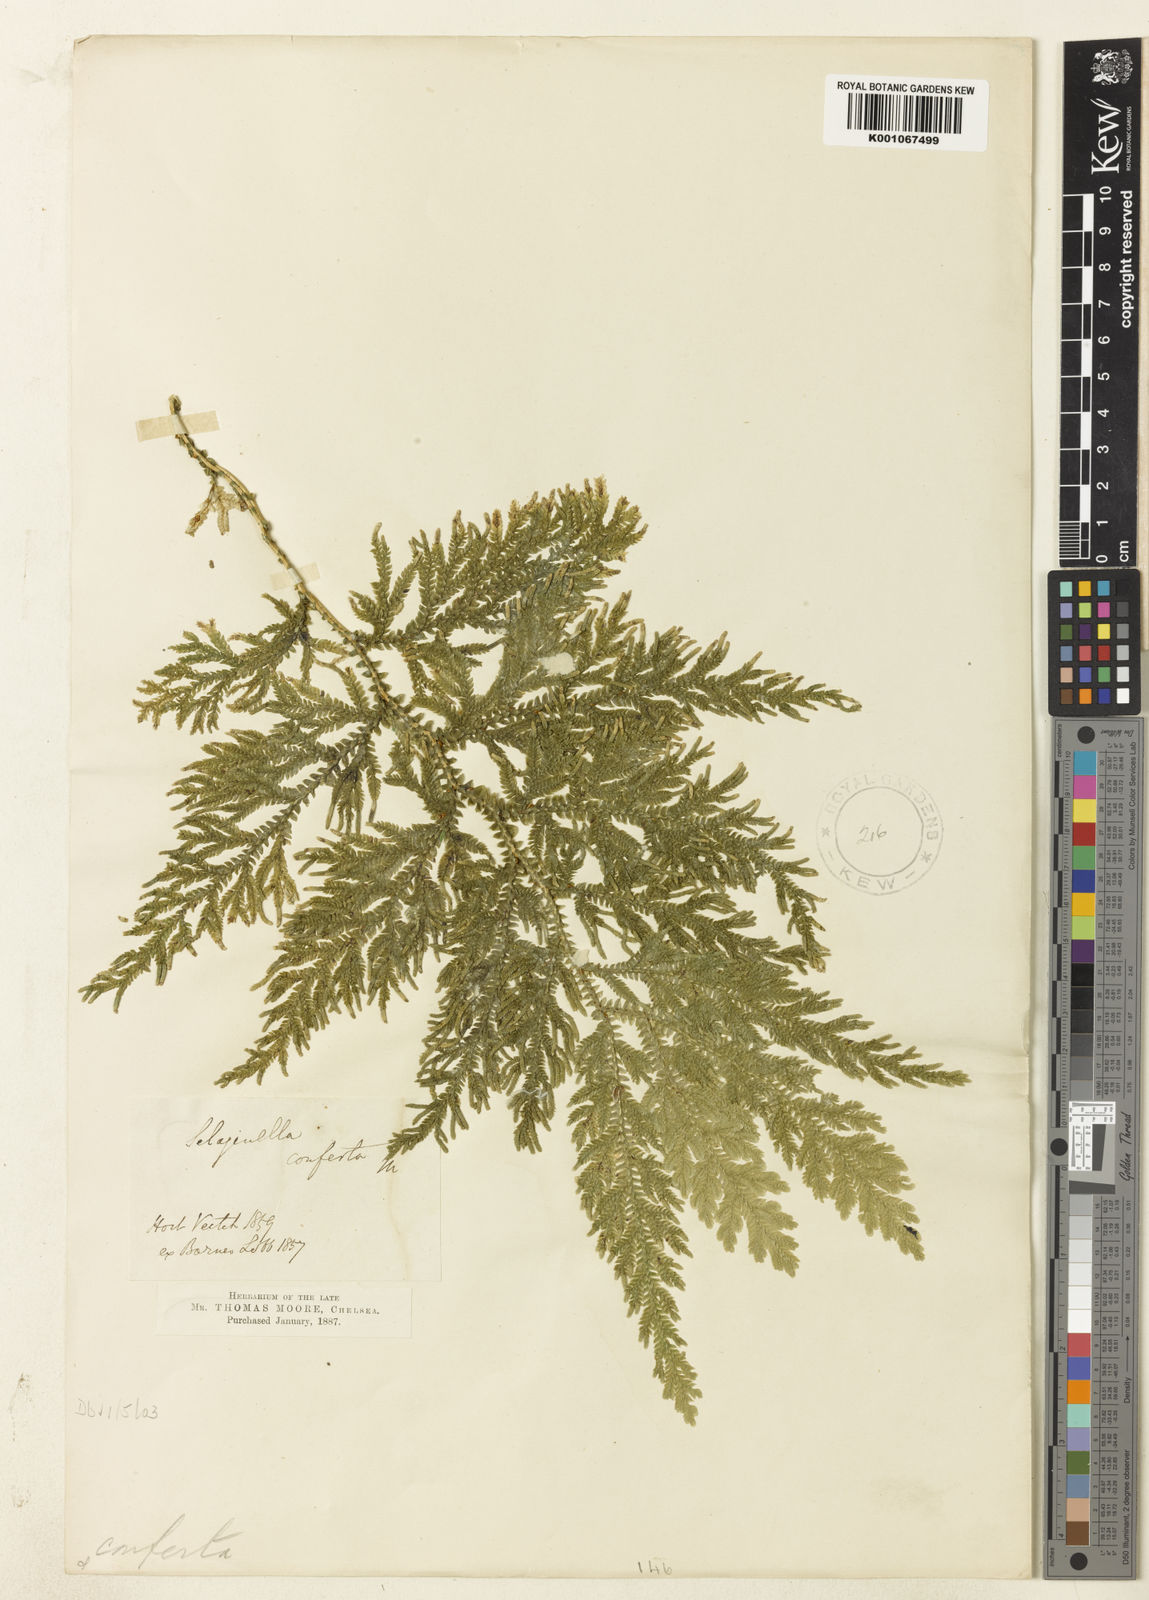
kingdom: Plantae
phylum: Tracheophyta
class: Lycopodiopsida
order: Selaginellales
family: Selaginellaceae
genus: Selaginella
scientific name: Selaginella
